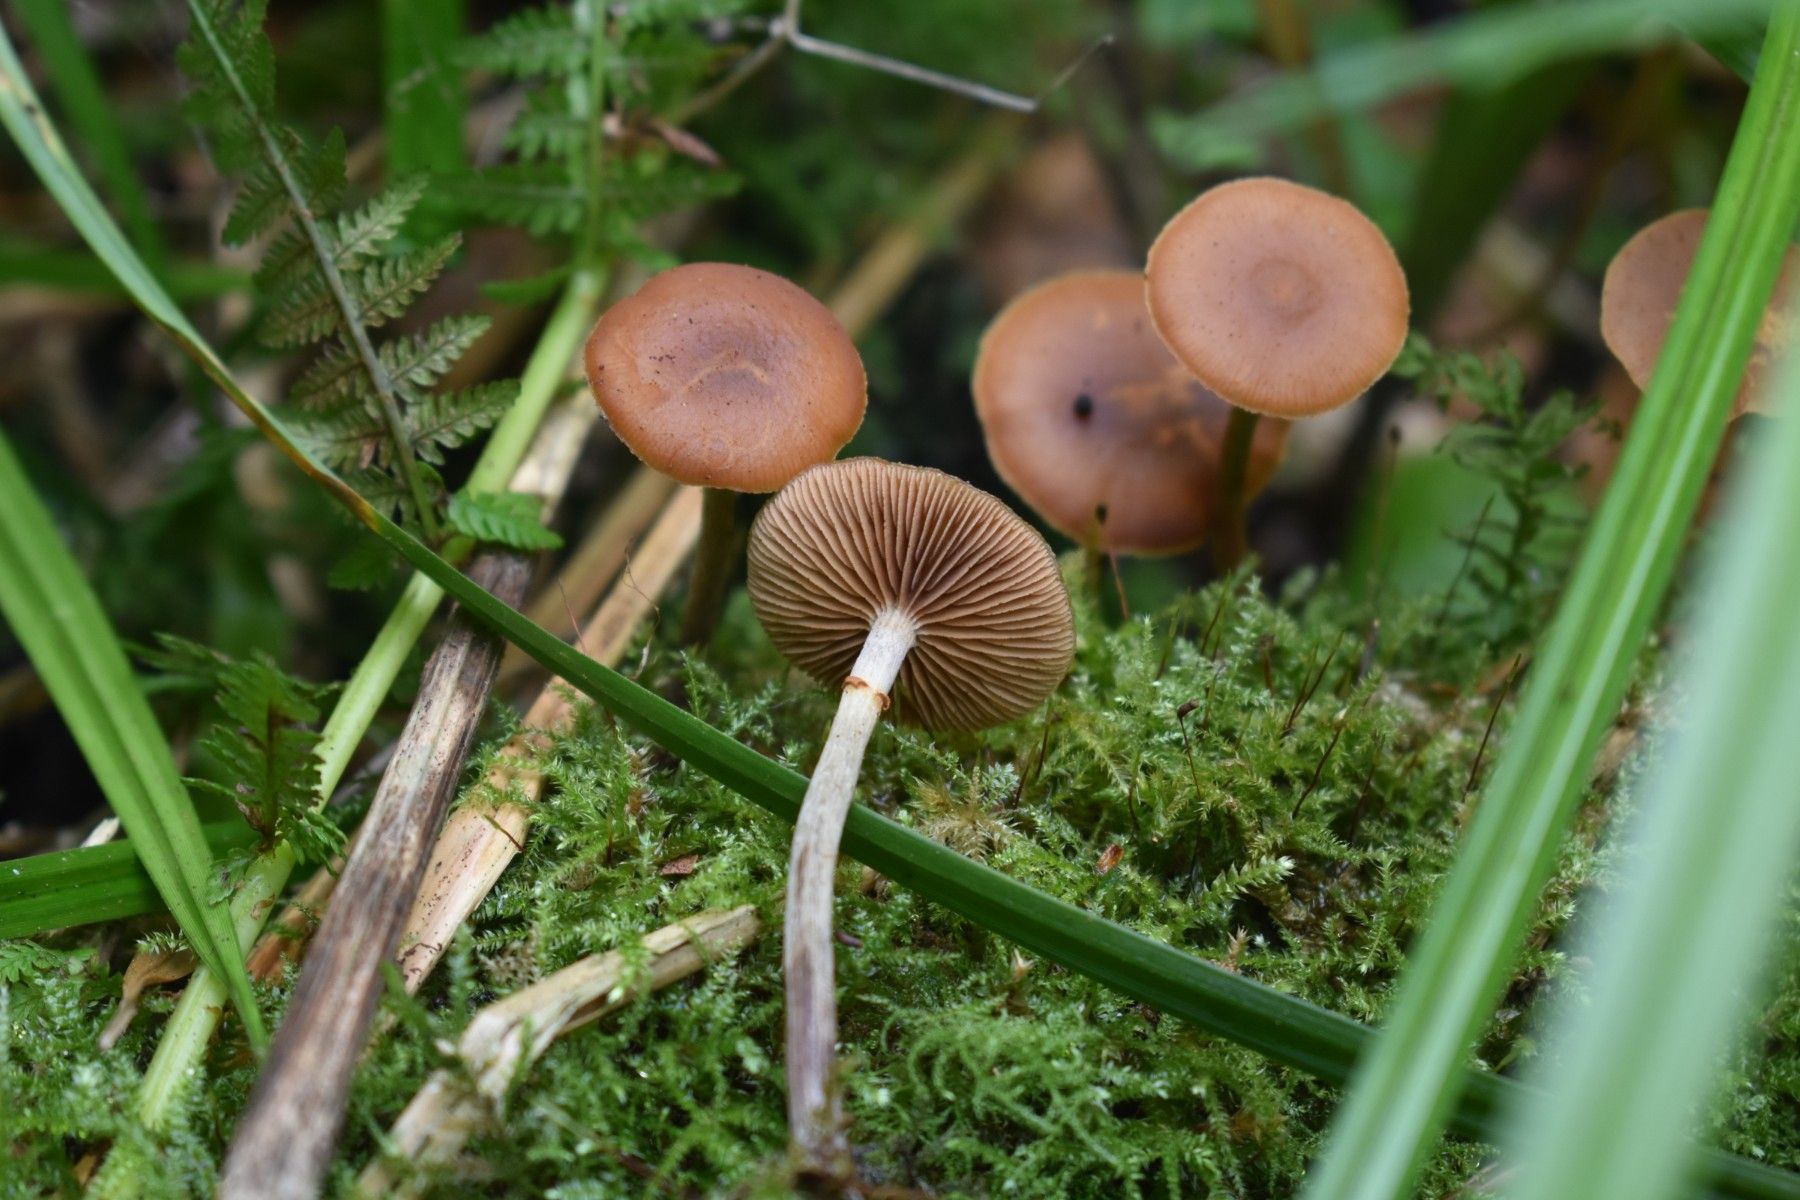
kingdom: Fungi
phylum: Basidiomycota
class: Agaricomycetes
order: Agaricales
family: Hymenogastraceae
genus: Galerina
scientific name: Galerina marginata
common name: randbæltet hjelmhat
